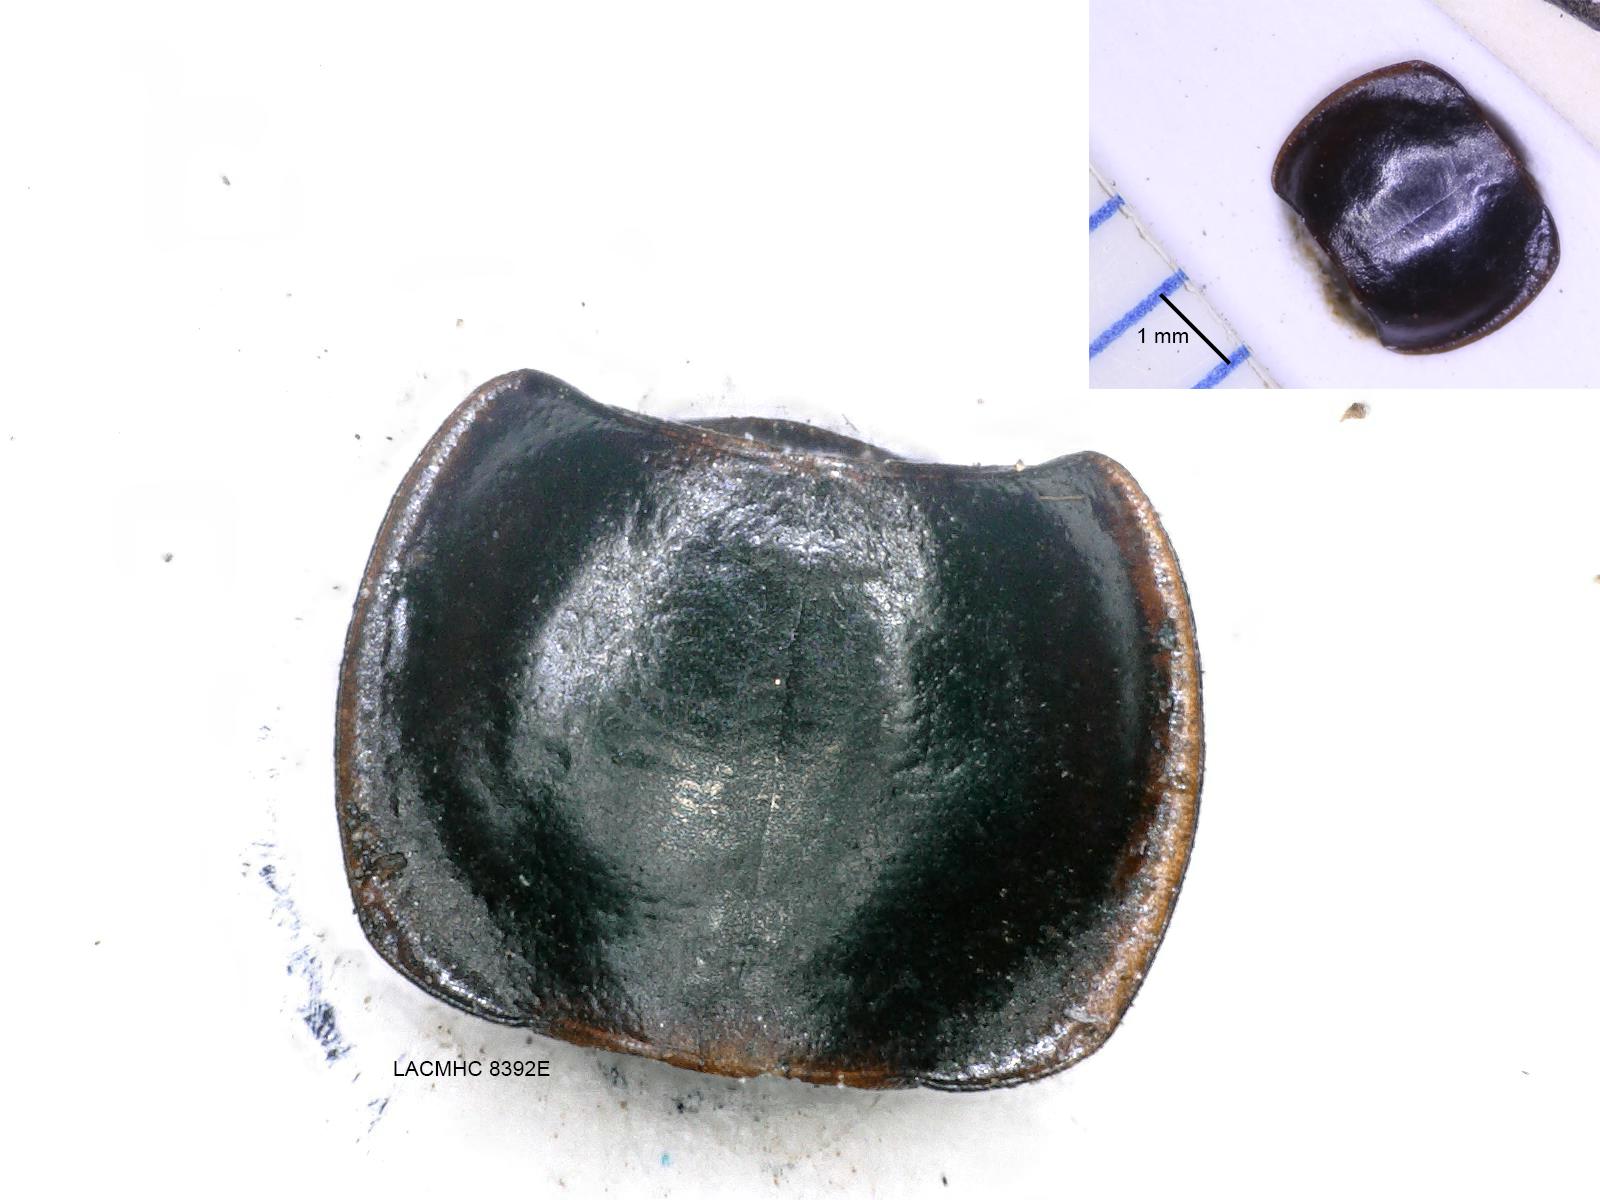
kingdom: Animalia
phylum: Arthropoda
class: Insecta
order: Coleoptera
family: Carabidae
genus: Tanystoma
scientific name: Tanystoma maculicolle
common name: Tule beetle
